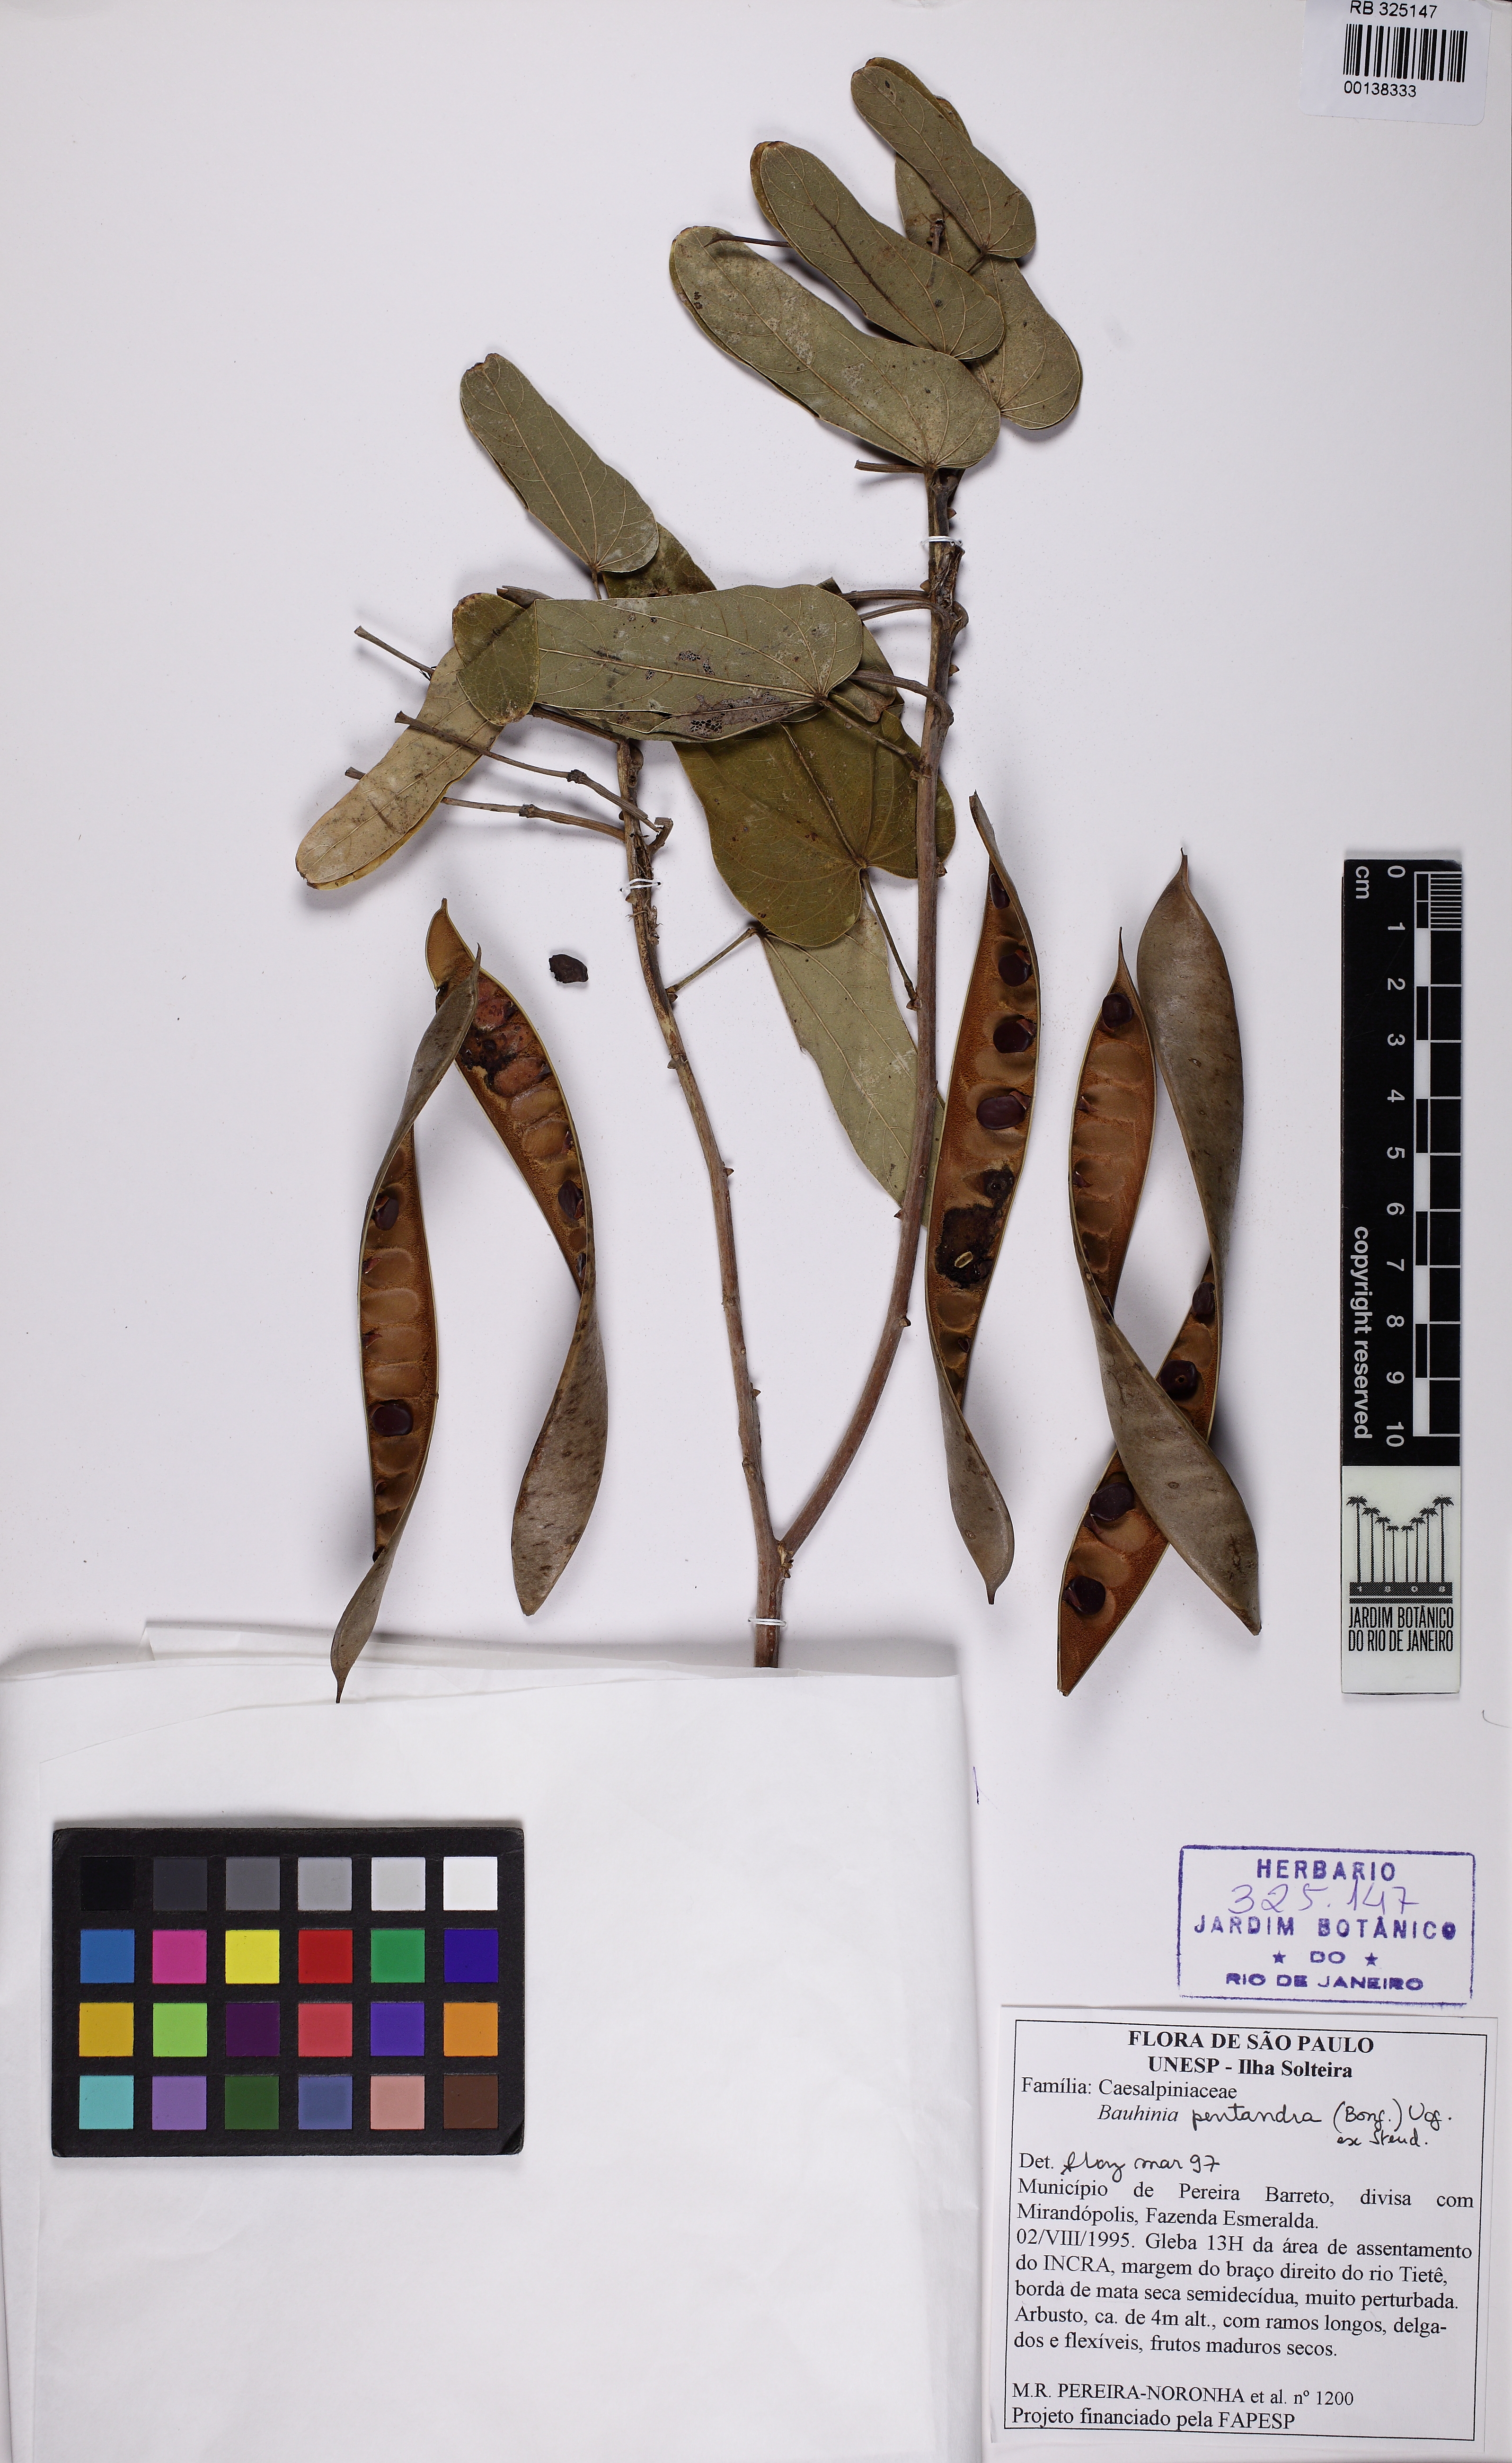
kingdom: Plantae
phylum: Tracheophyta
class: Magnoliopsida
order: Fabales
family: Fabaceae
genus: Bauhinia
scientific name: Bauhinia pentandra
